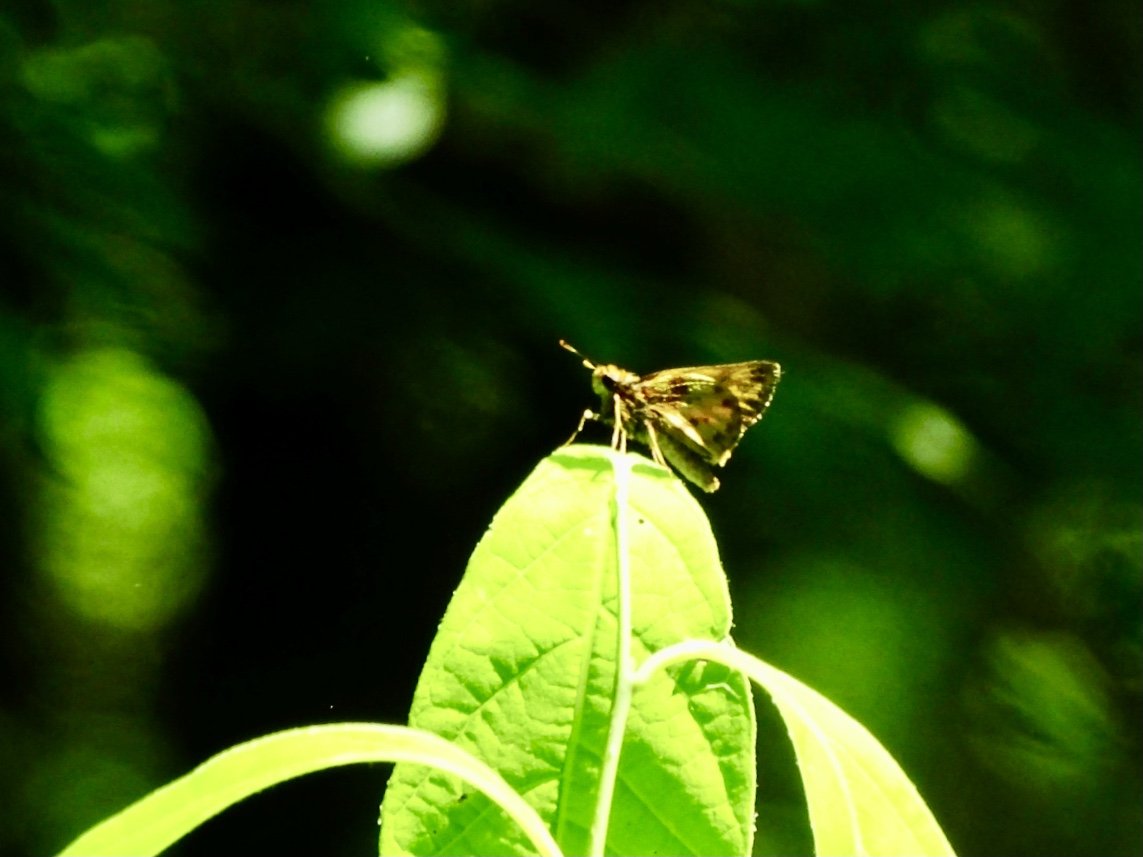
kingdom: Animalia
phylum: Arthropoda
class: Insecta
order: Lepidoptera
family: Hesperiidae
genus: Lon
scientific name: Lon zabulon
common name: Zabulon Skipper
